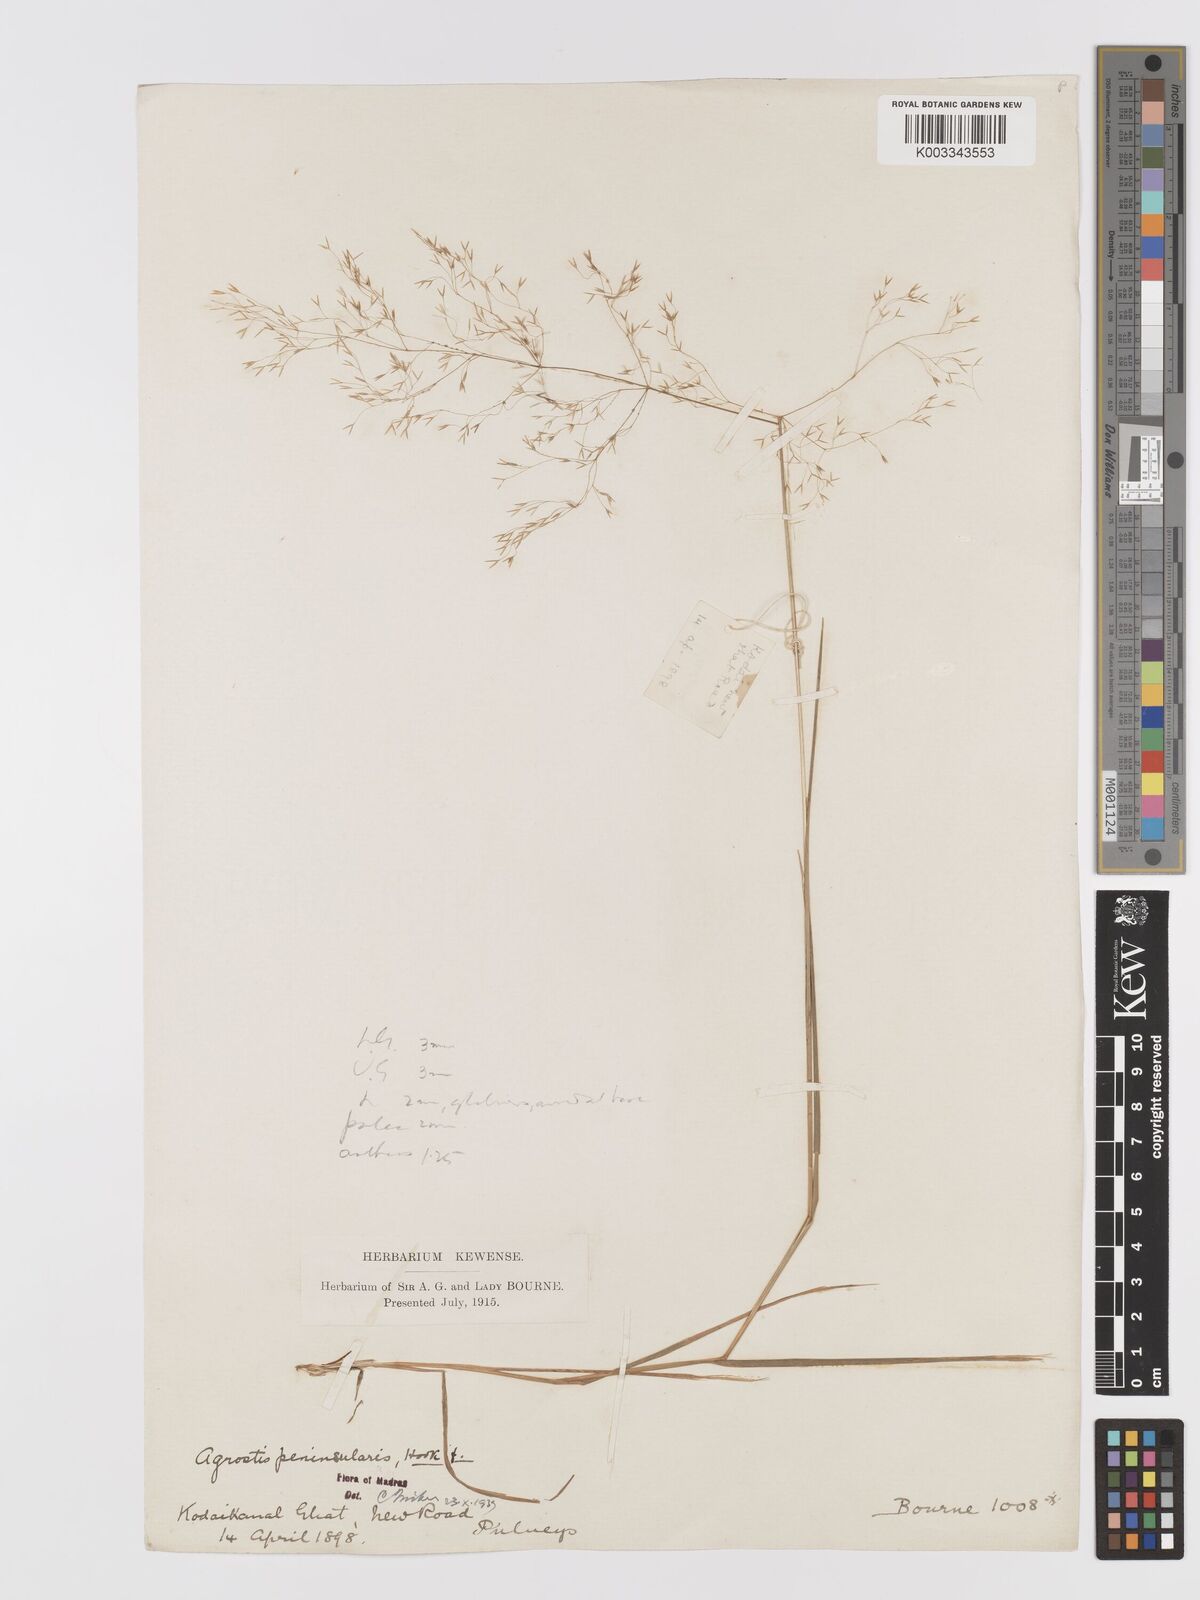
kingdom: Plantae
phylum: Tracheophyta
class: Liliopsida
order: Poales
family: Poaceae
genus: Agrostis
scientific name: Agrostis peninsularis
